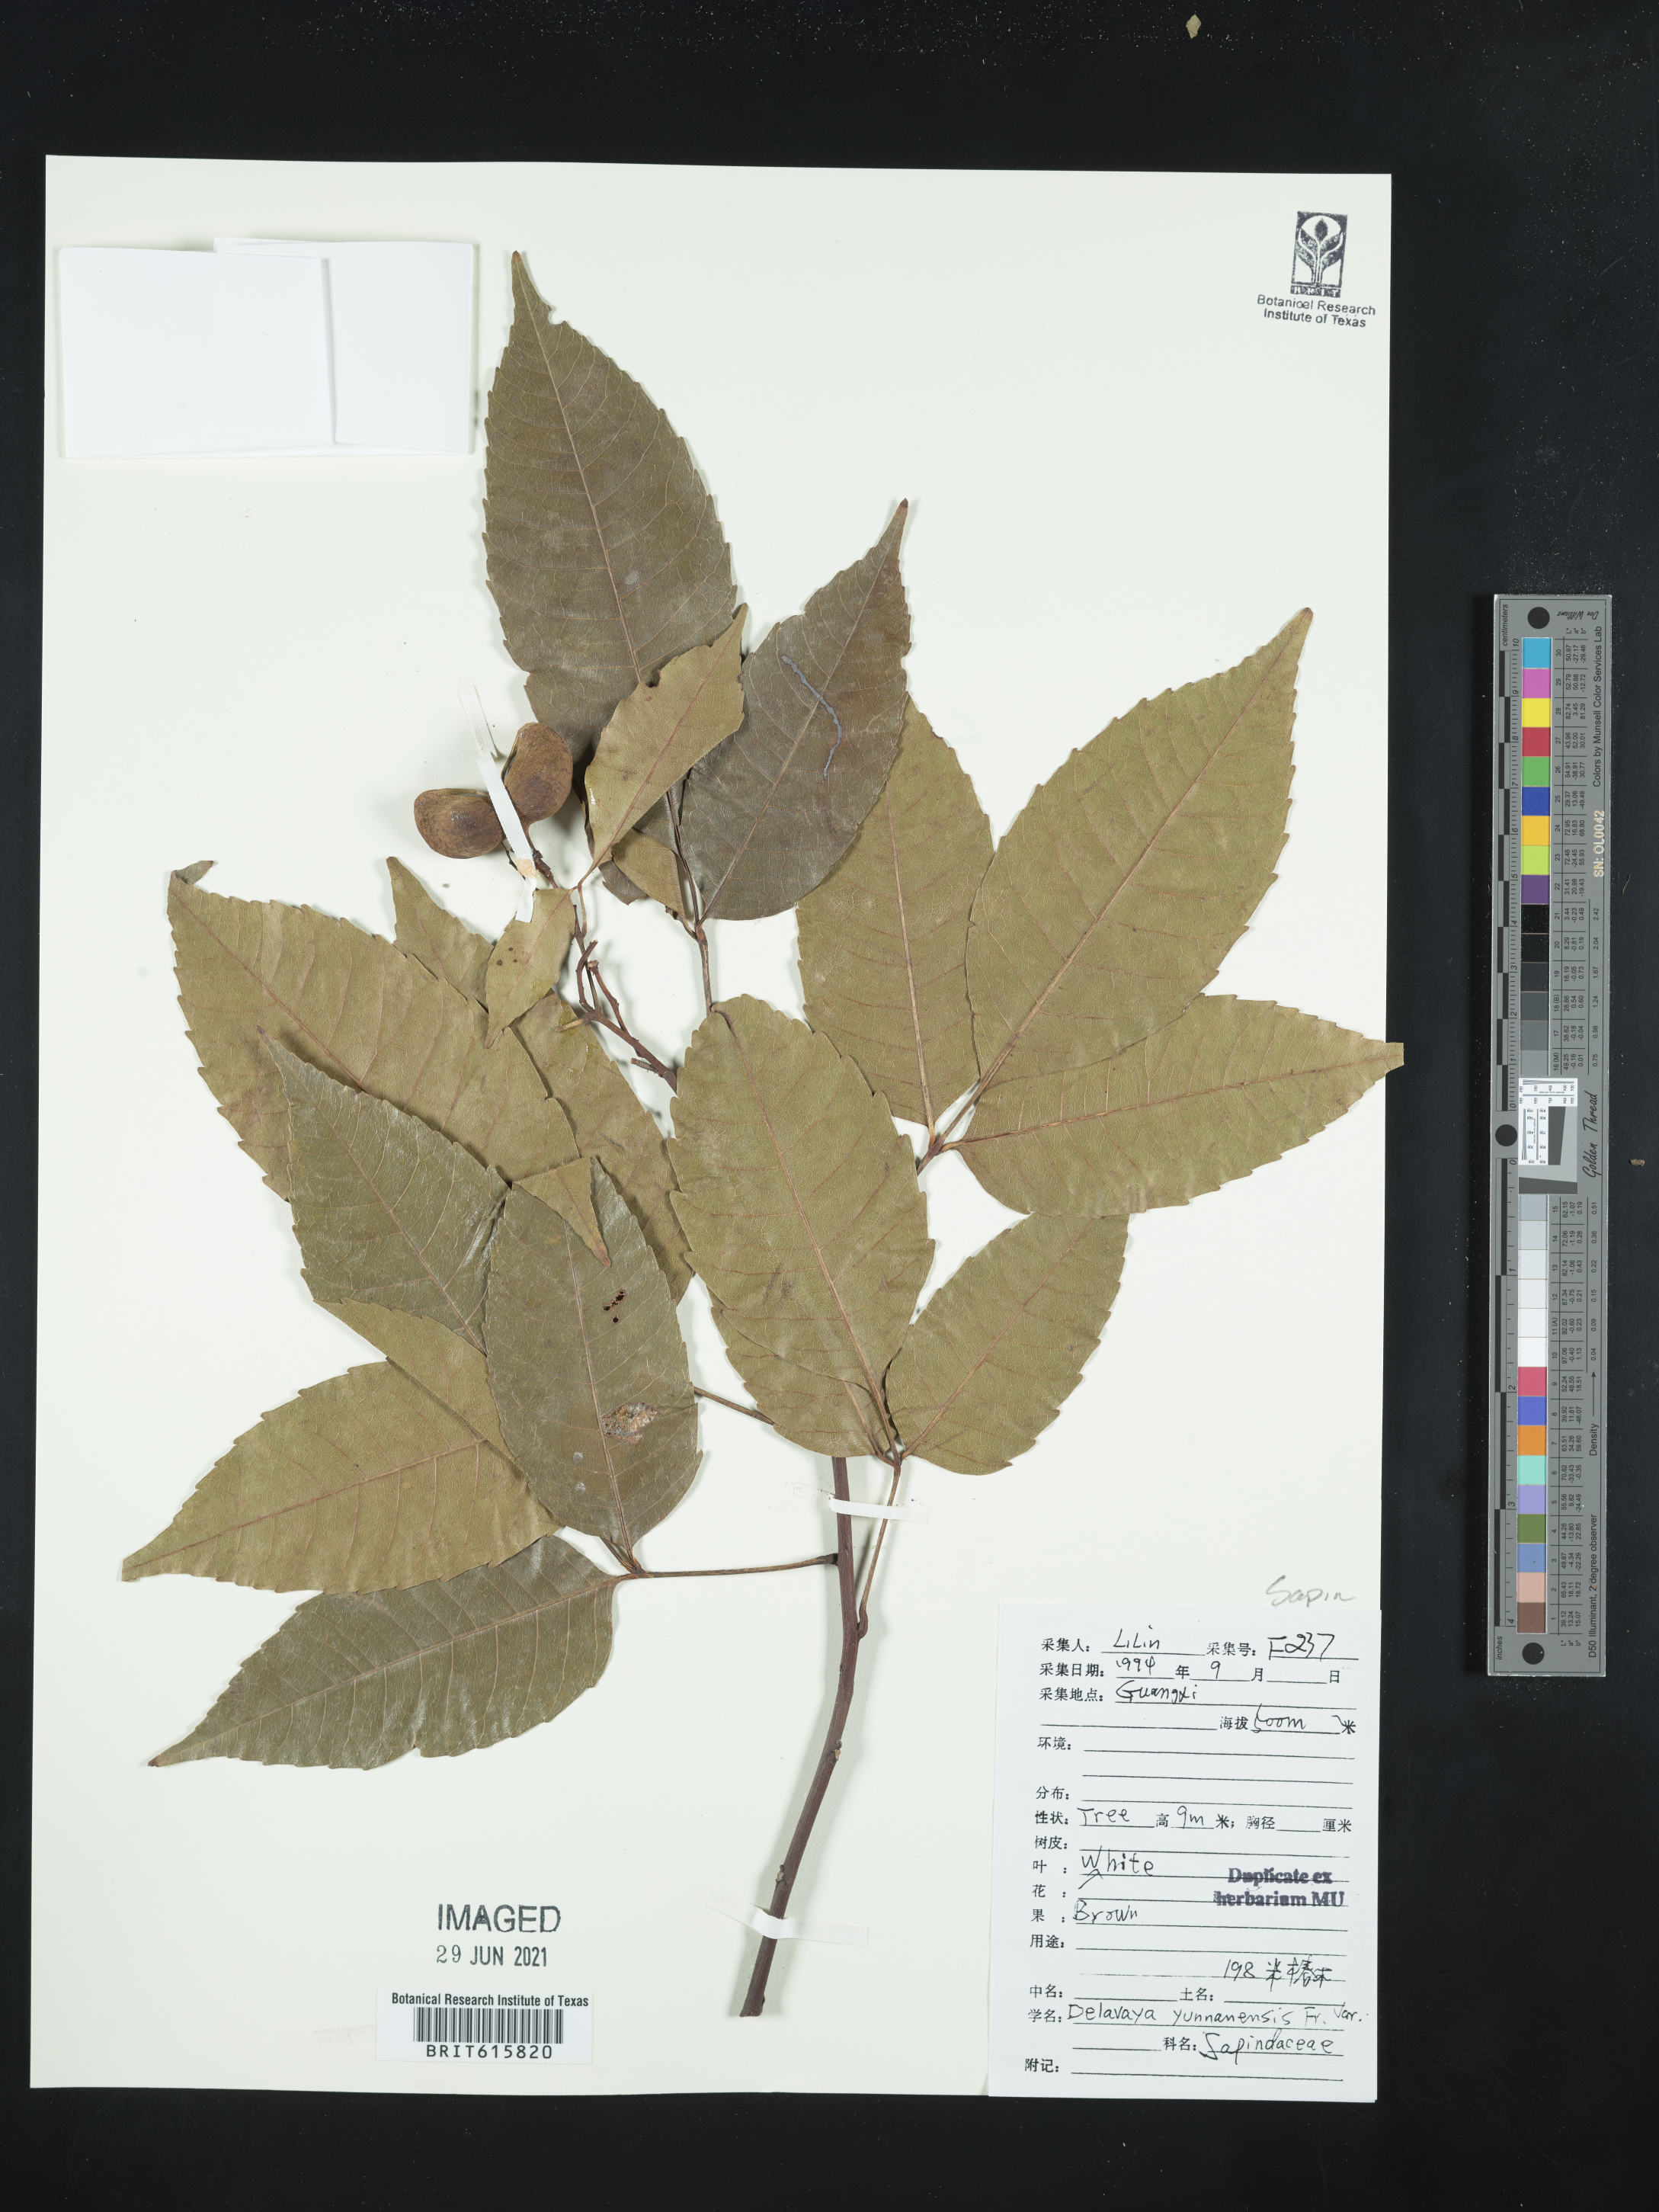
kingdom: Plantae
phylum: Tracheophyta
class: Magnoliopsida
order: Sapindales
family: Sapindaceae
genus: Delavaya
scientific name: Delavaya toxocarpa
